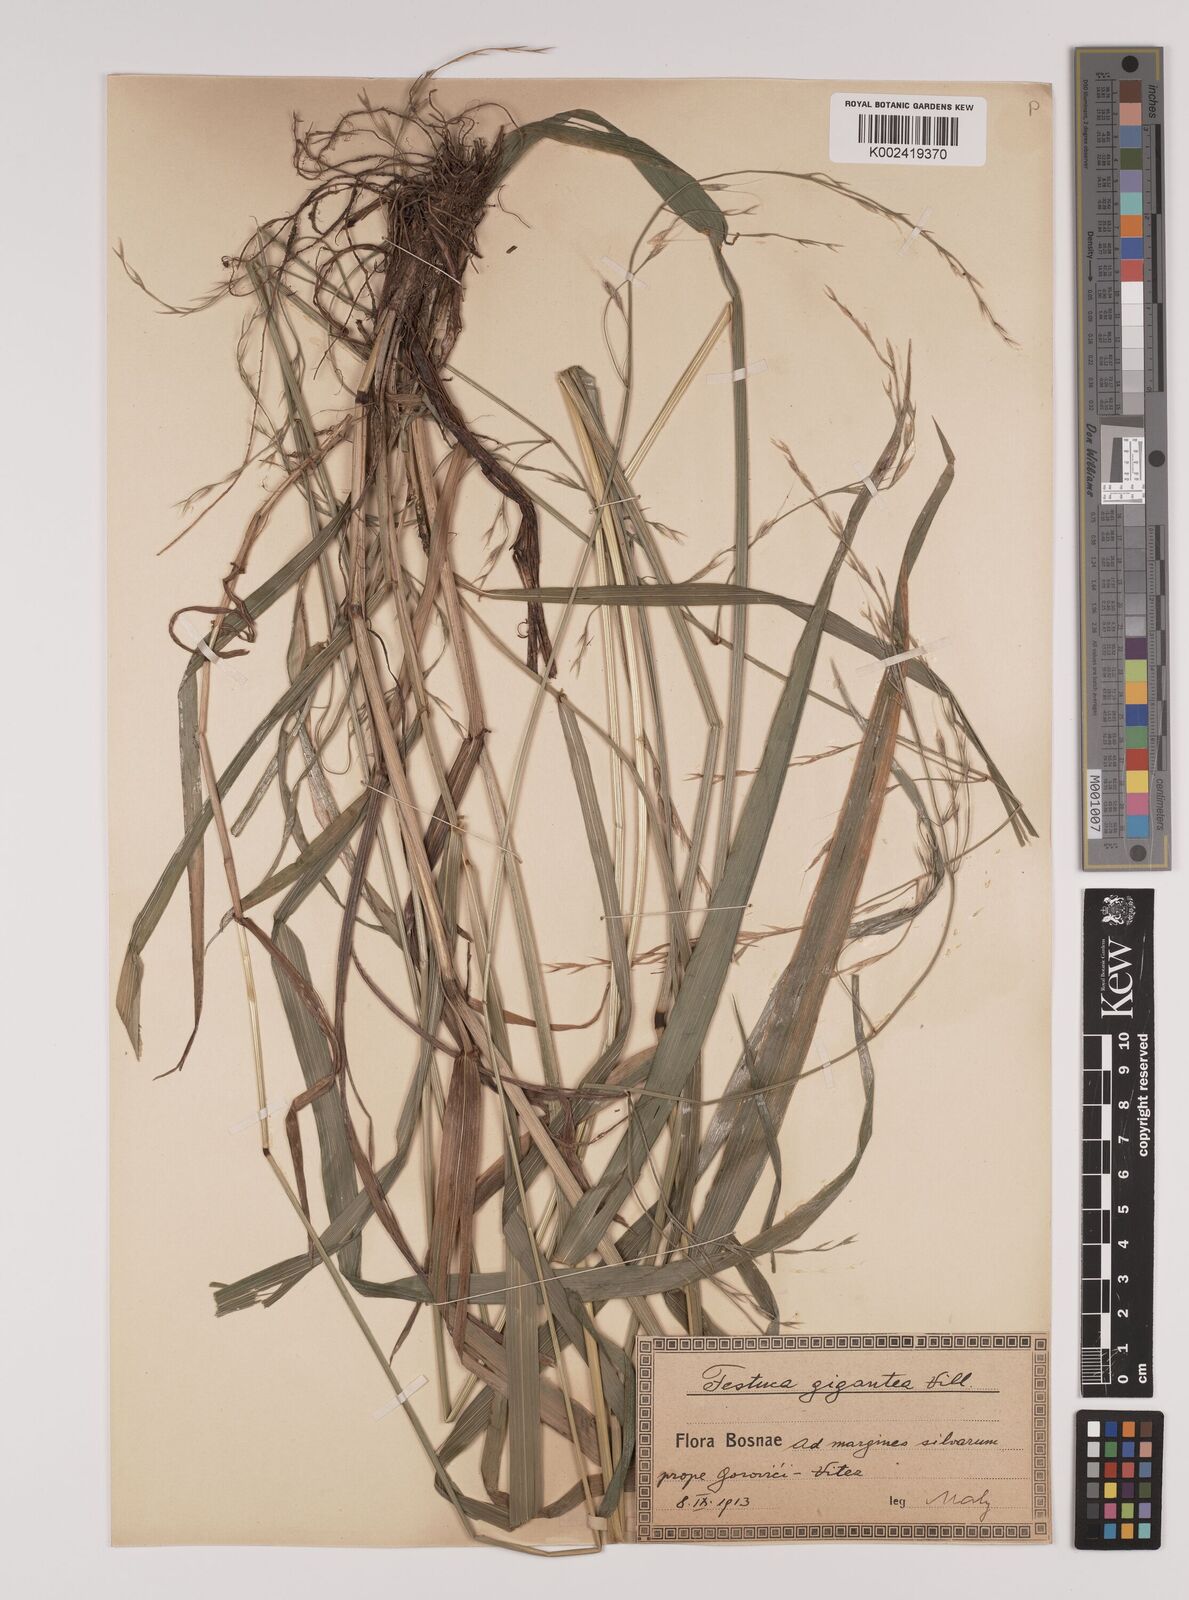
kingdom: Plantae
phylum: Tracheophyta
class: Liliopsida
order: Poales
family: Poaceae
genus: Lolium
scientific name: Lolium giganteum
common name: Giant fescue
